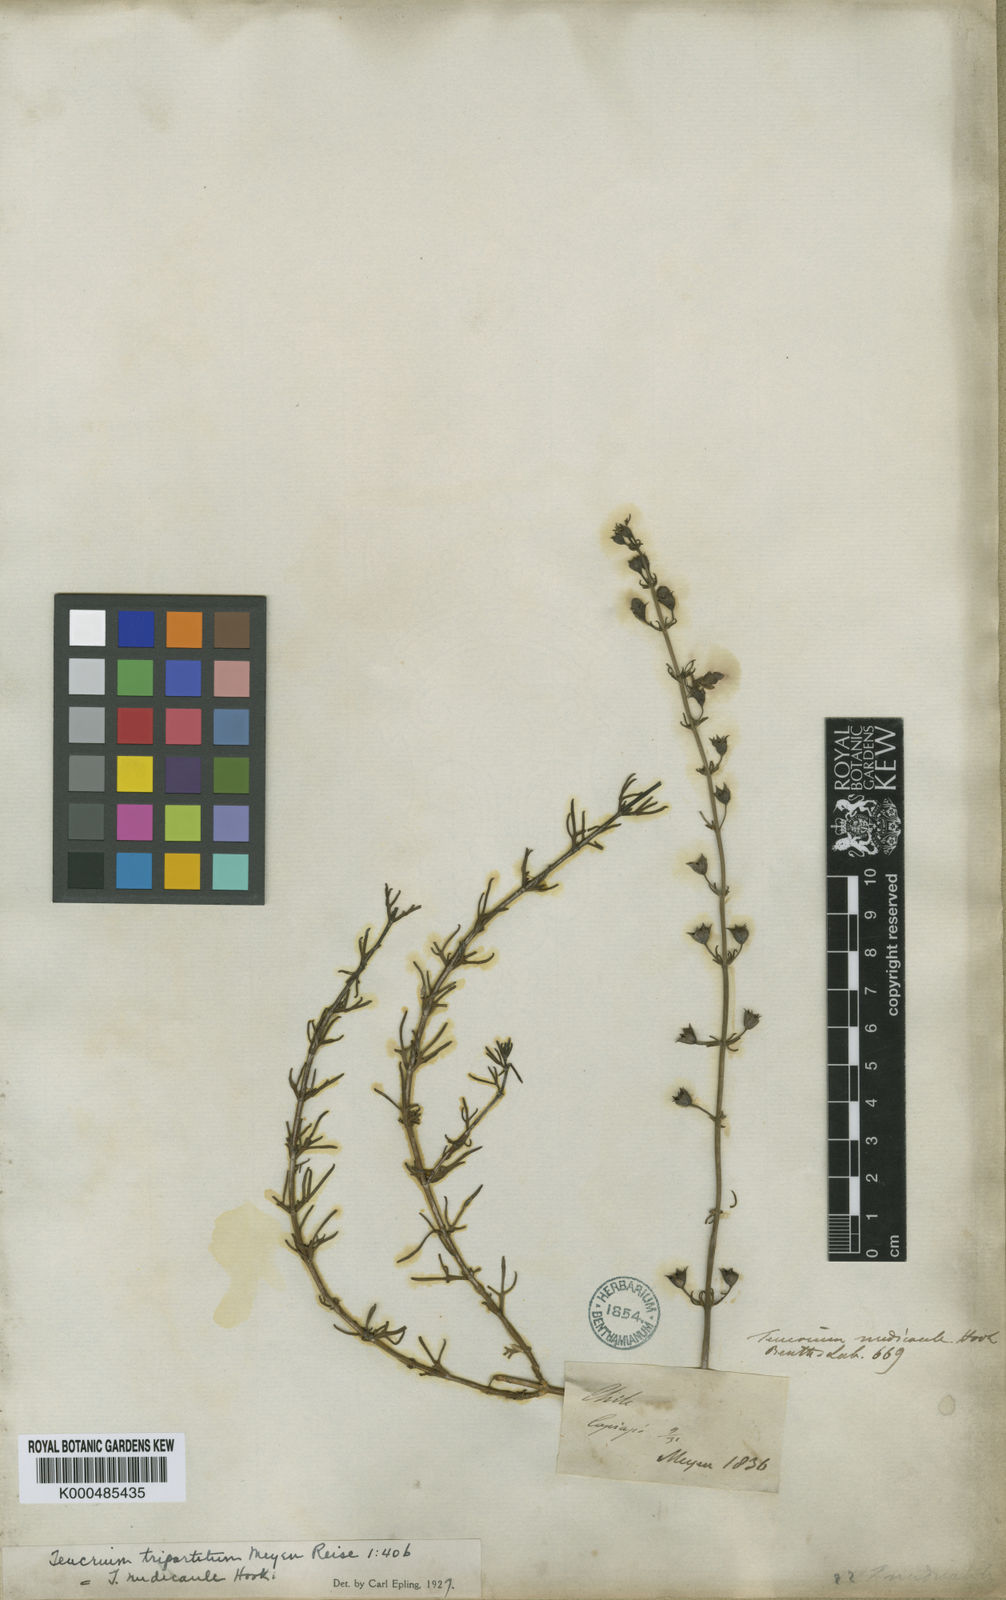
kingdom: Plantae
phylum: Tracheophyta
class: Magnoliopsida
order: Lamiales
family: Lamiaceae
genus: Teucrium
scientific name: Teucrium nudicaule
